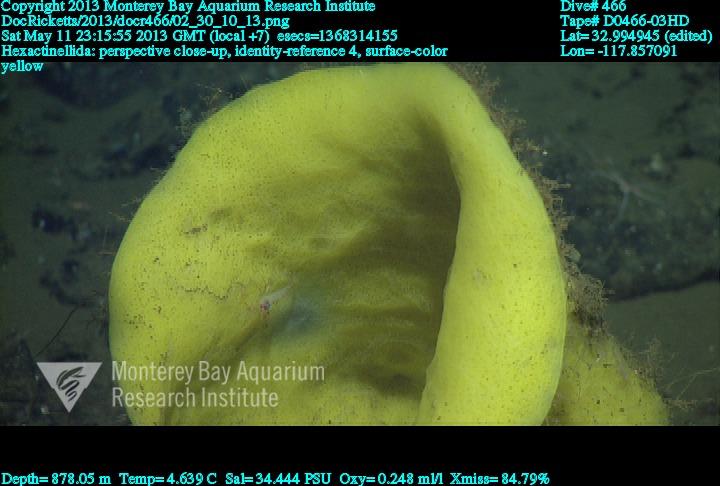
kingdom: Animalia
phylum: Porifera
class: Hexactinellida
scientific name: Hexactinellida
